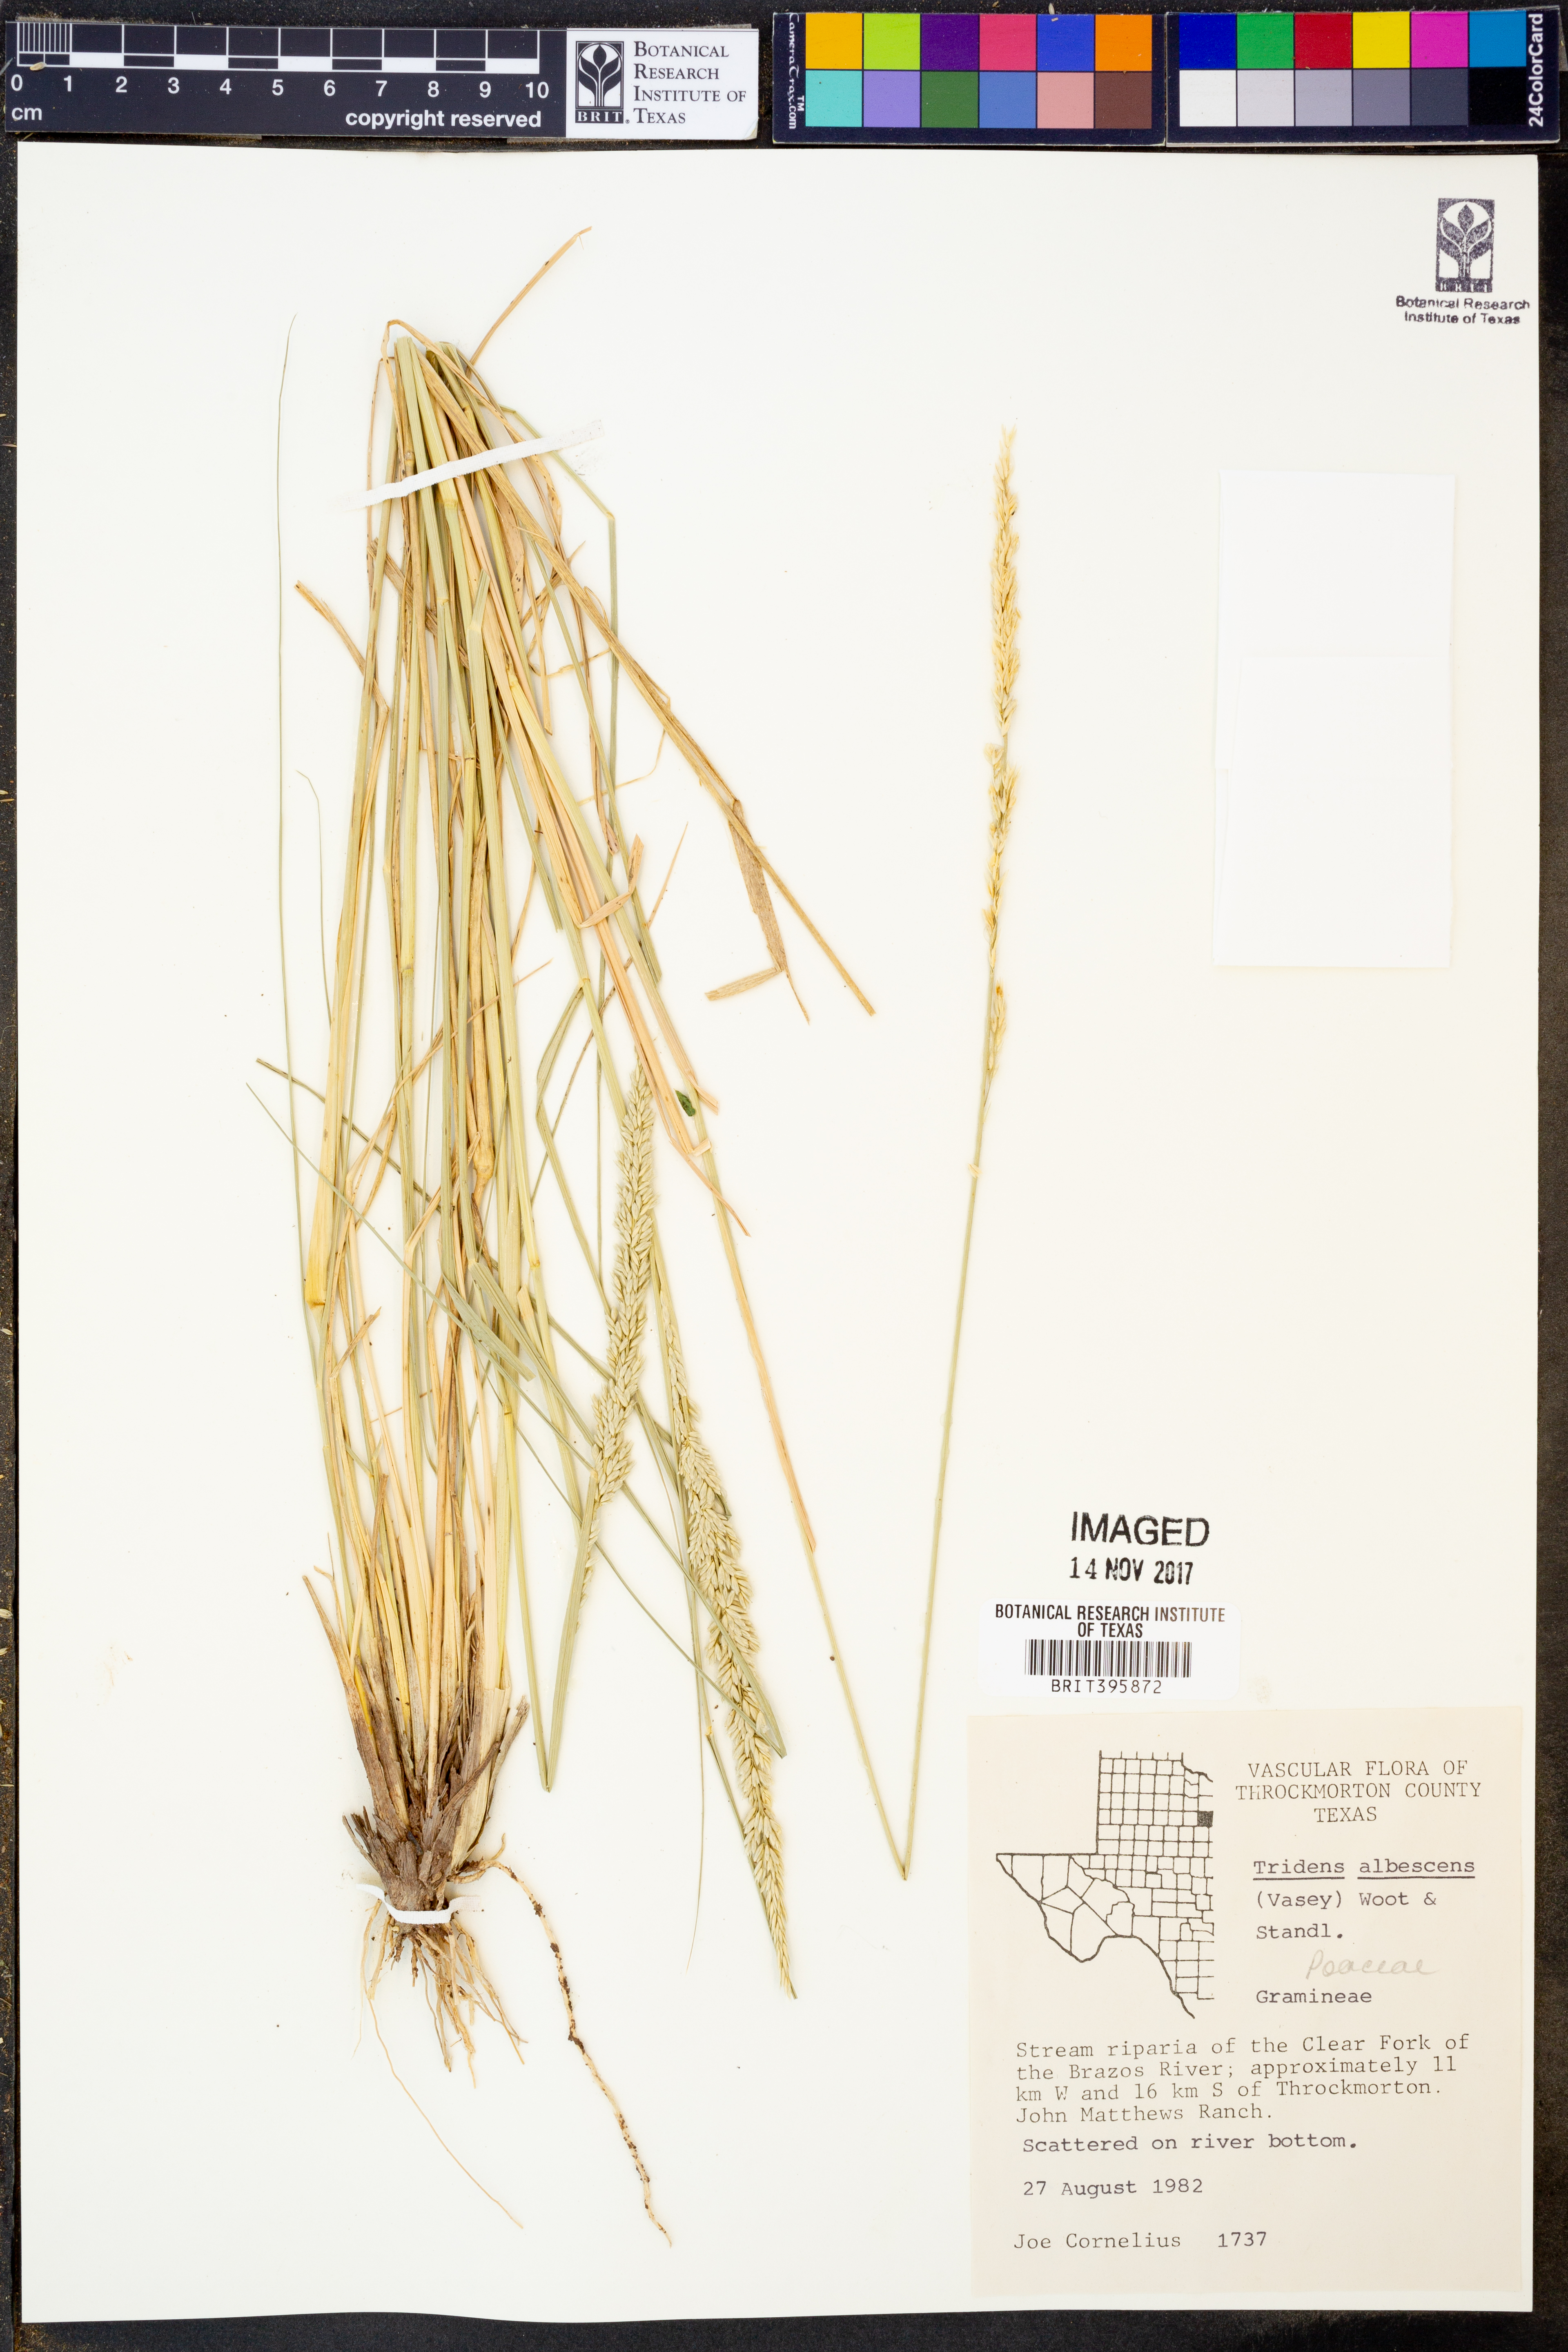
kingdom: Plantae
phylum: Tracheophyta
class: Liliopsida
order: Poales
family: Poaceae
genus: Tridens
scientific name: Tridens albescens
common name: White tridens
